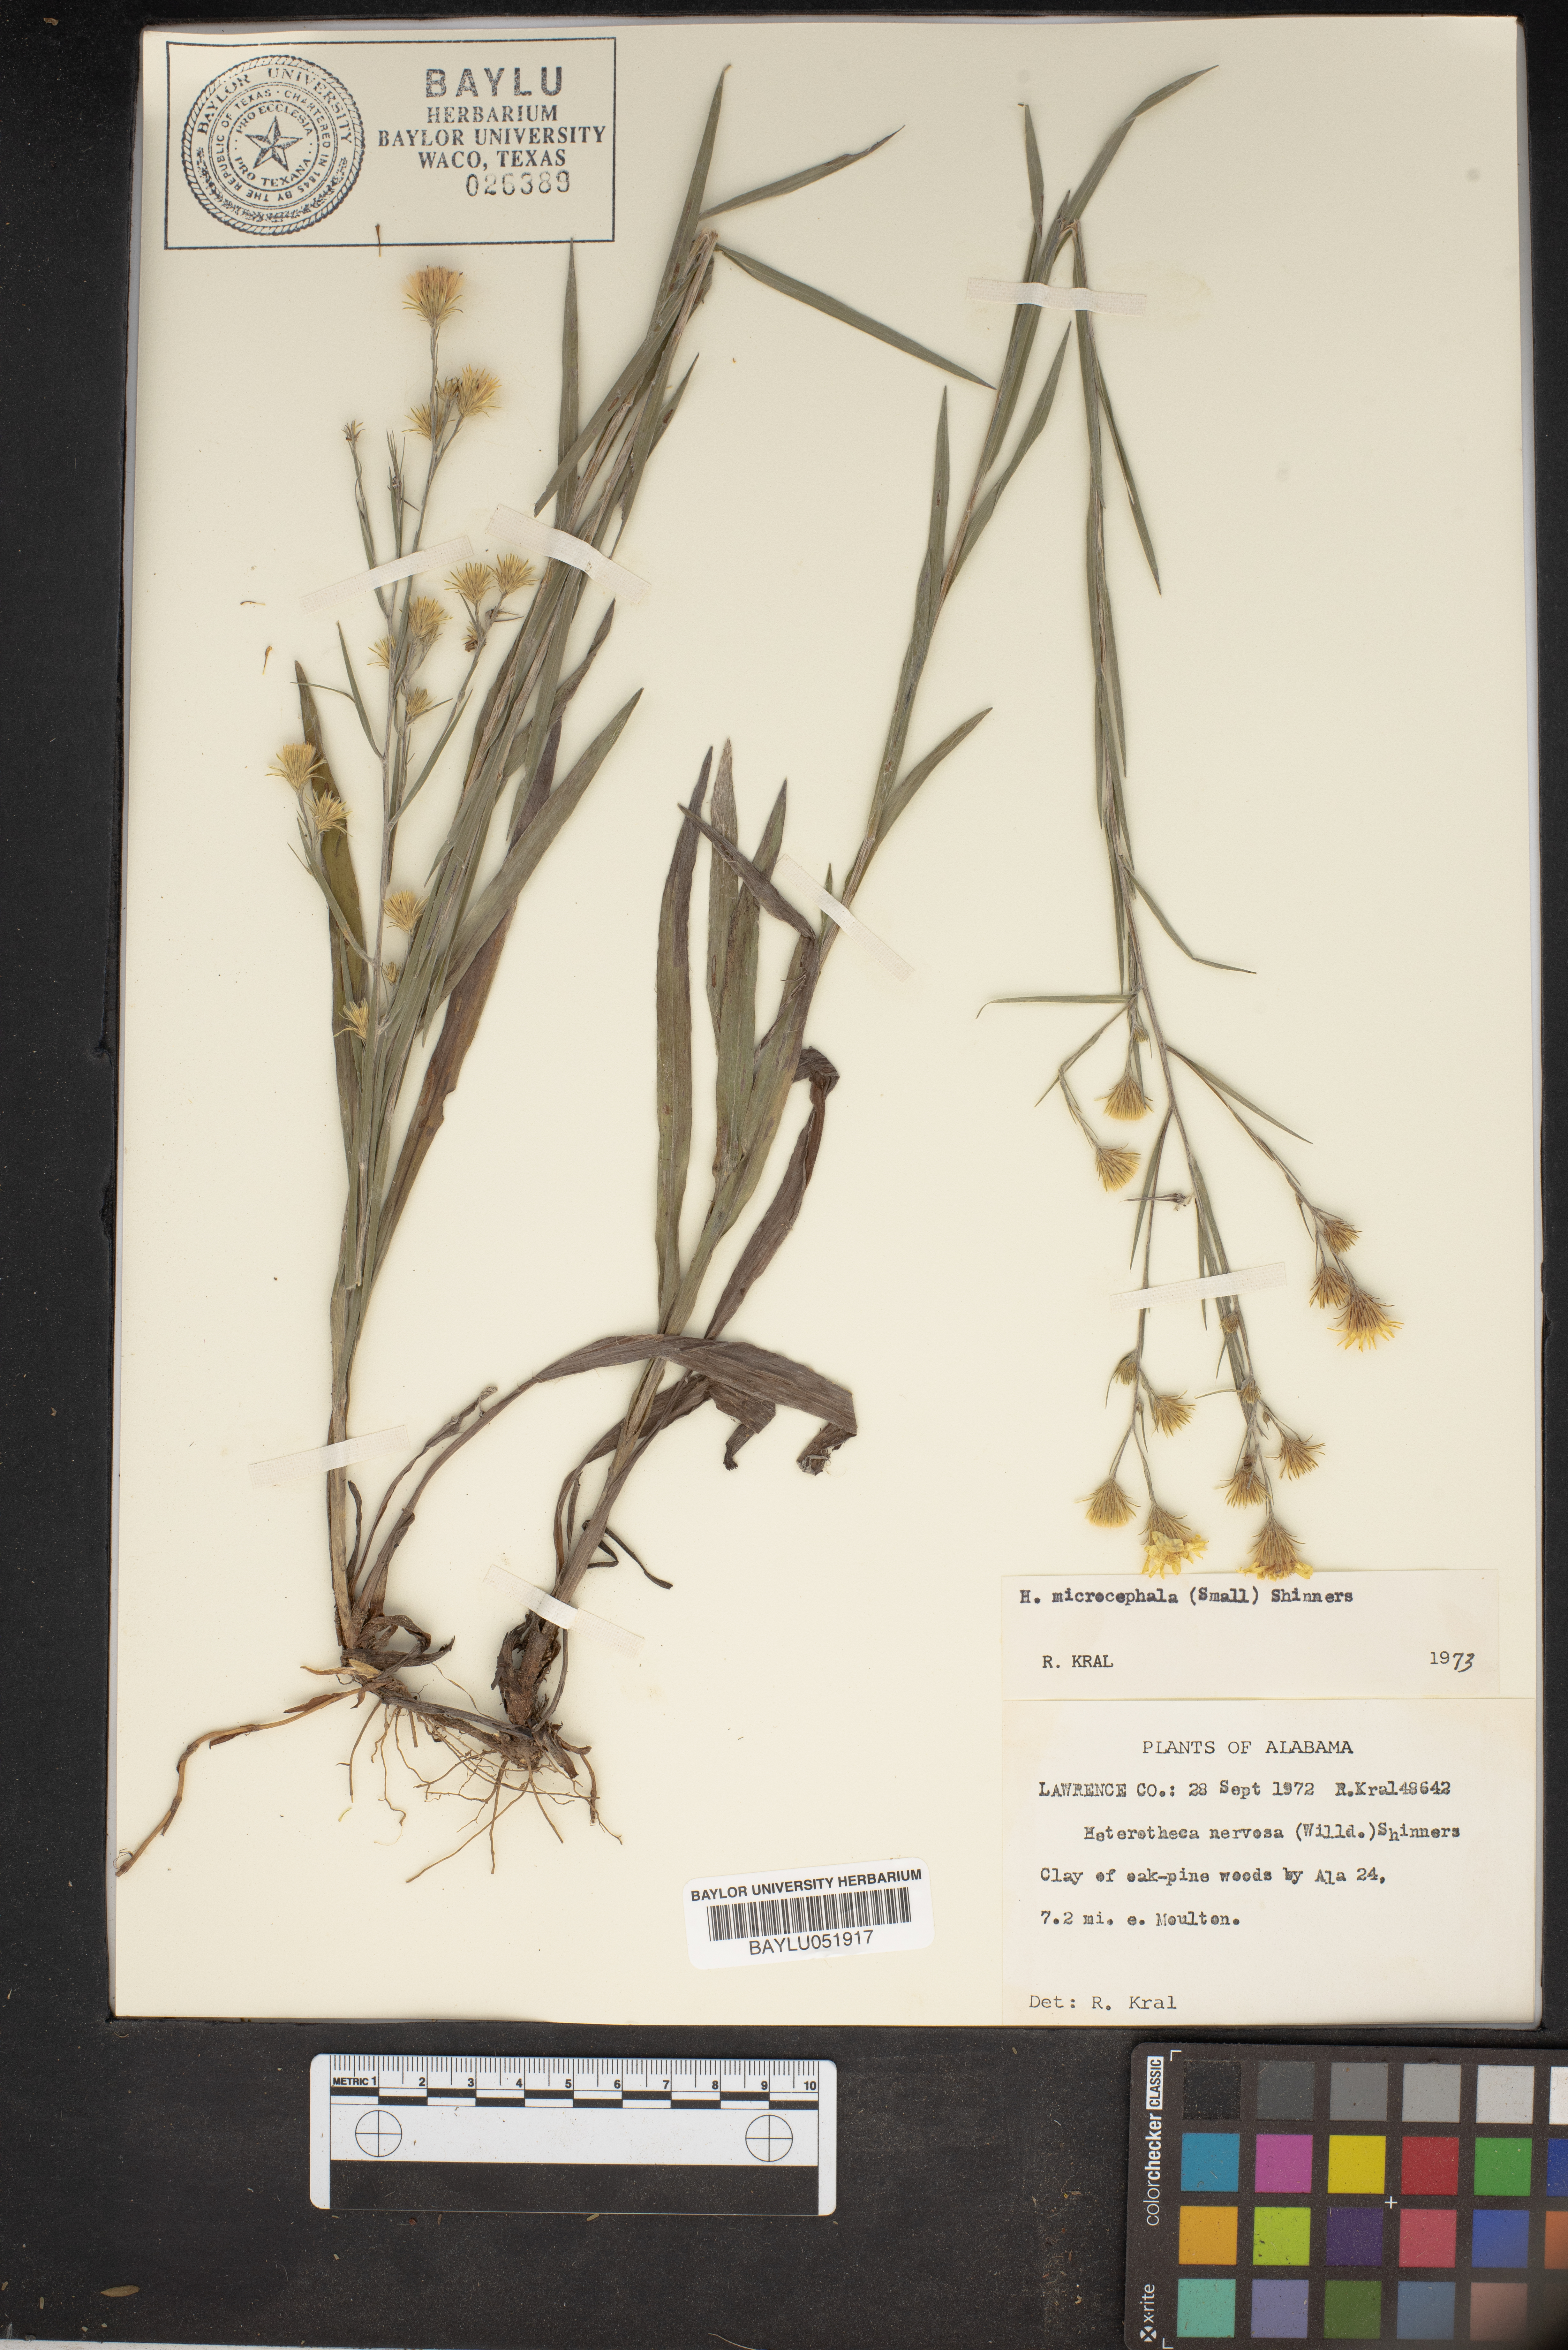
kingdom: Plantae
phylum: Tracheophyta
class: Magnoliopsida
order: Asterales
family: Asteraceae
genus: Pityopsis
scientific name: Pityopsis microcephala
